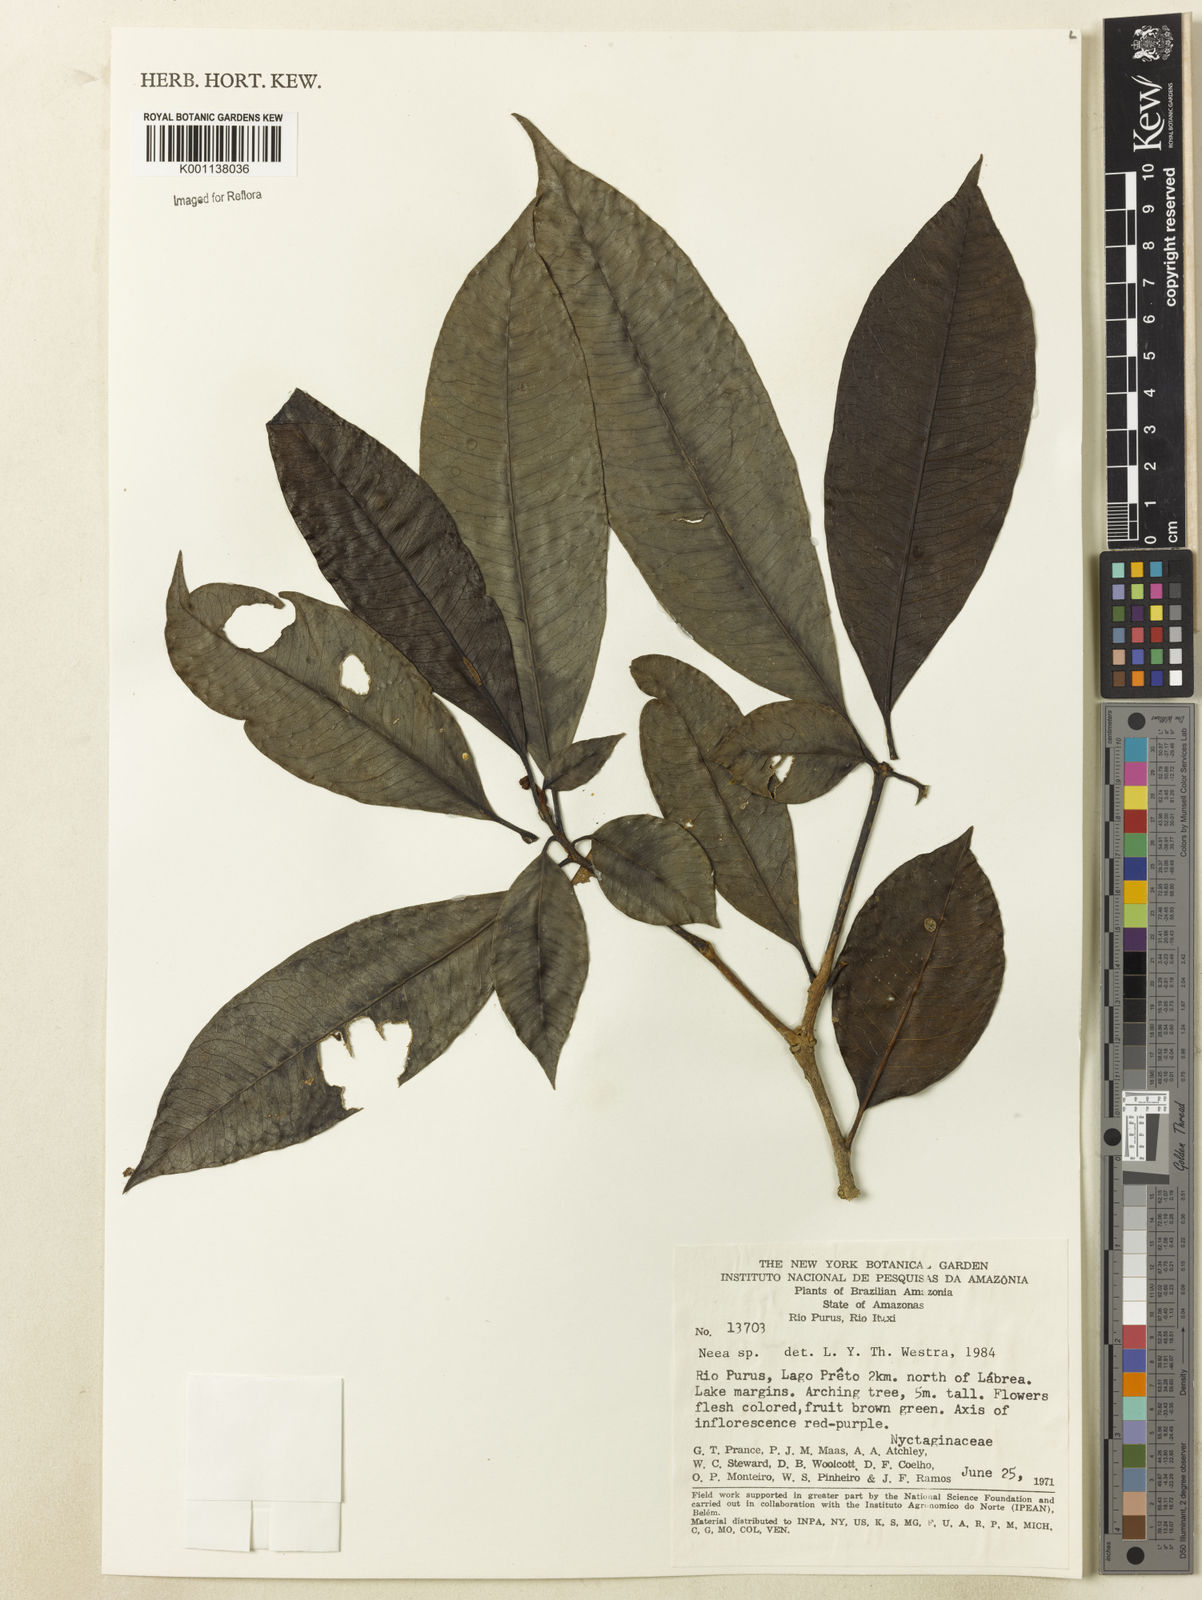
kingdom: Plantae
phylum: Tracheophyta
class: Magnoliopsida
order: Caryophyllales
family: Nyctaginaceae
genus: Neea
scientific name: Neea
